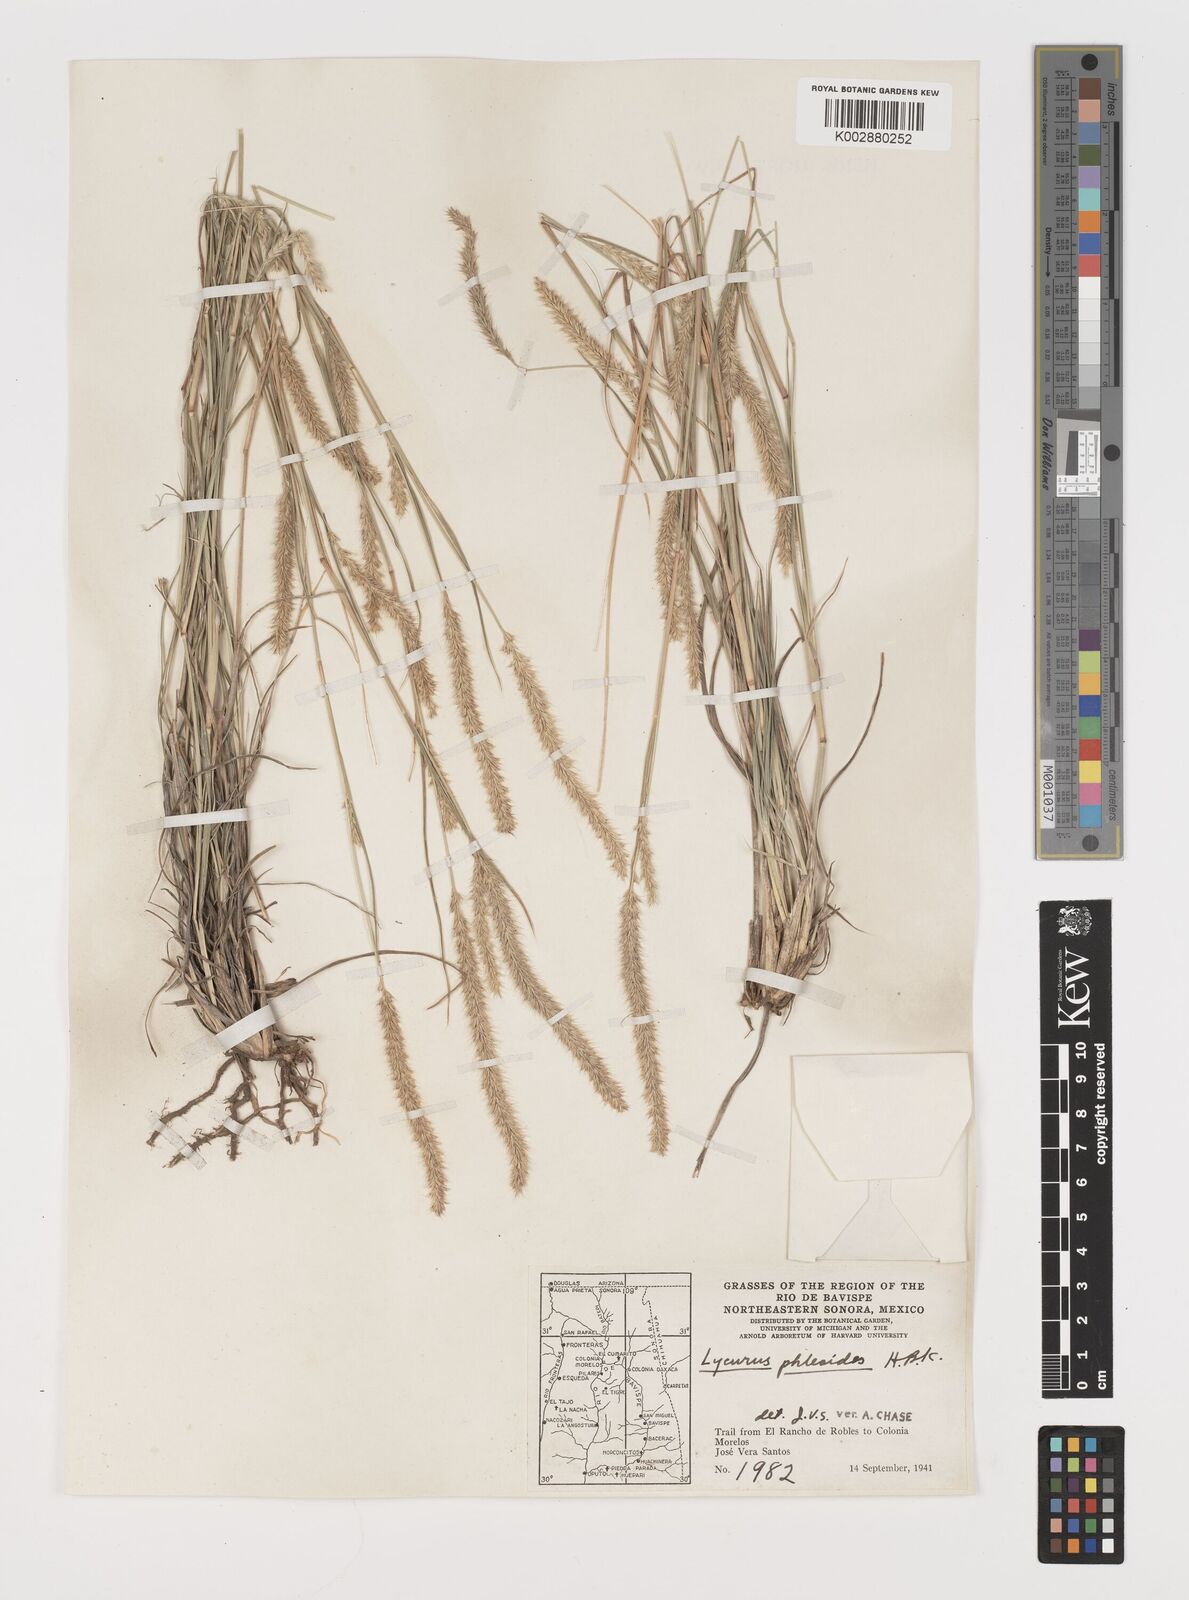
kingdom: Plantae
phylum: Tracheophyta
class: Liliopsida
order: Poales
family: Poaceae
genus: Muhlenbergia
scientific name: Muhlenbergia alopecuroides
